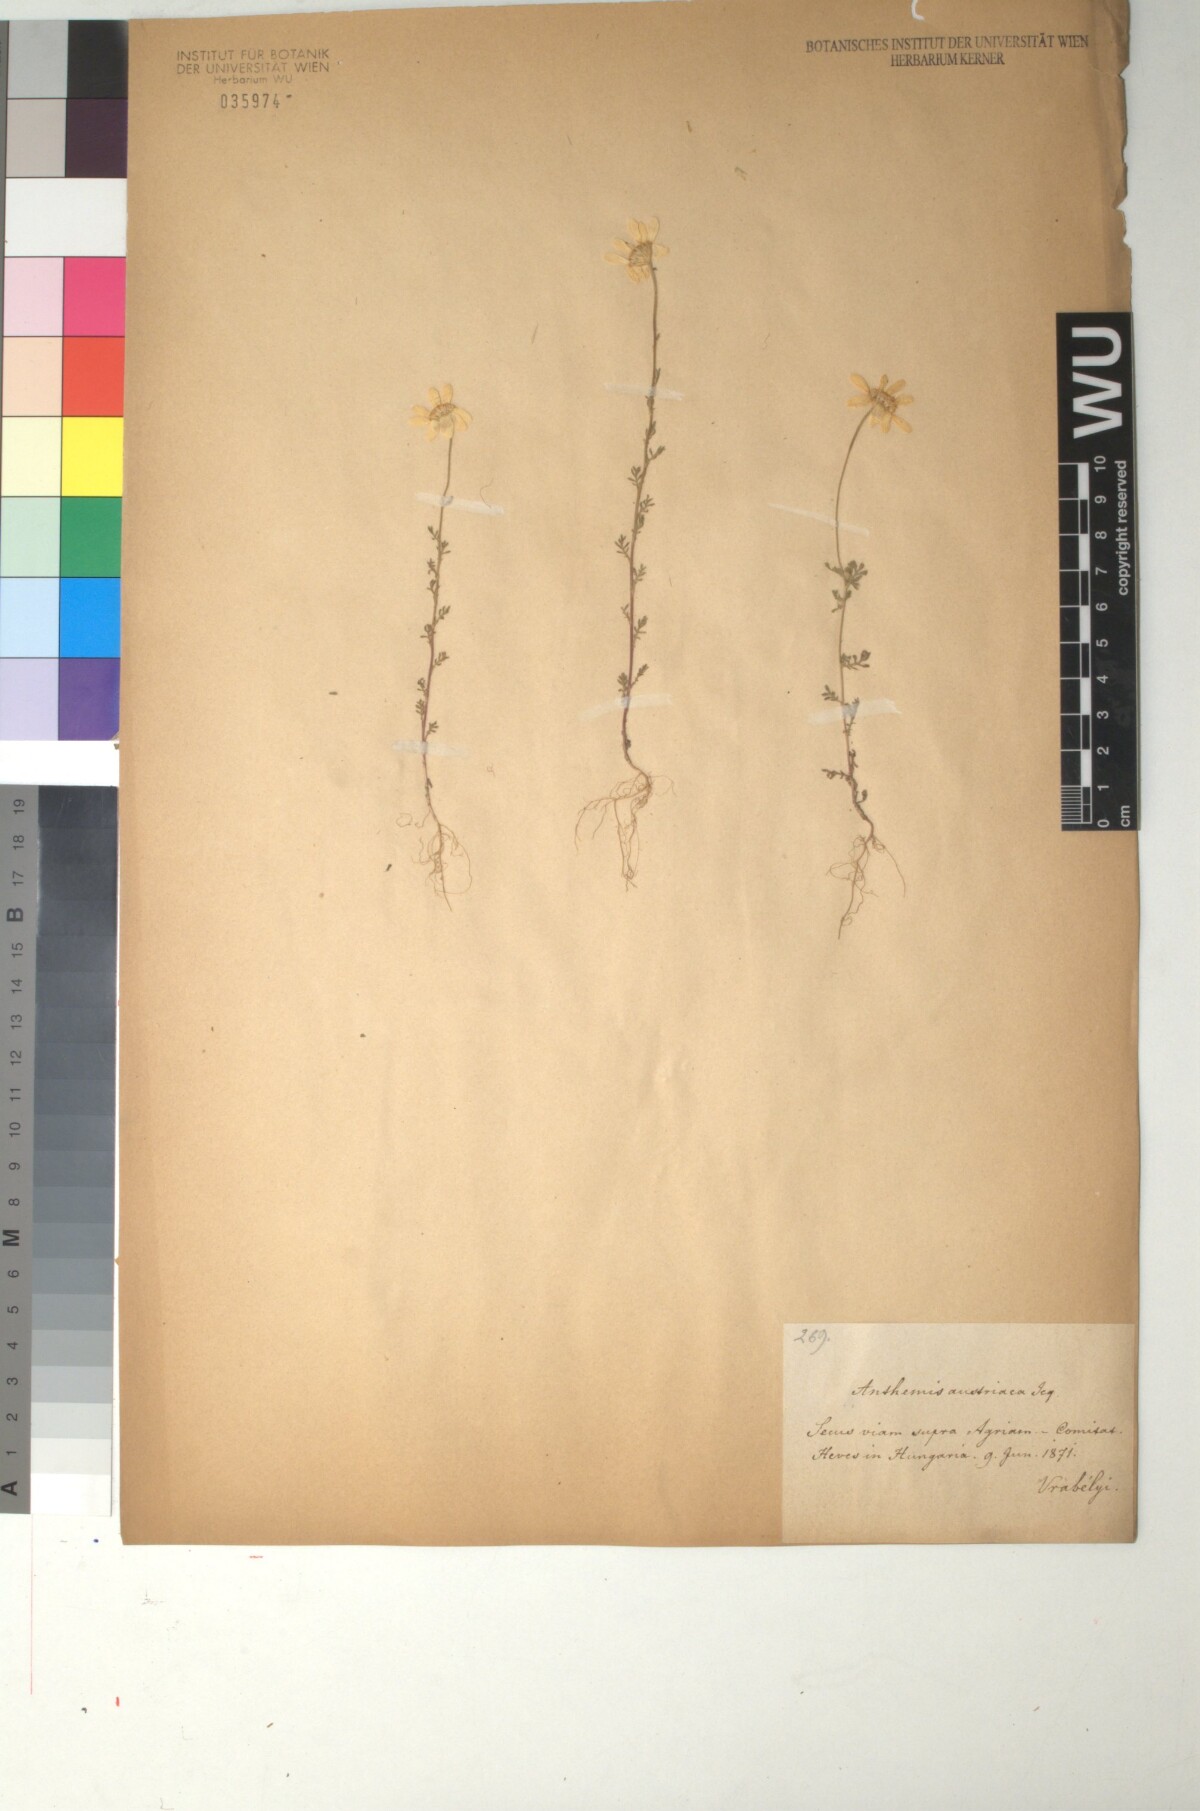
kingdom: Plantae
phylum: Tracheophyta
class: Magnoliopsida
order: Asterales
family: Asteraceae
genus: Cota
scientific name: Cota austriaca
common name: Austrian chamomile
